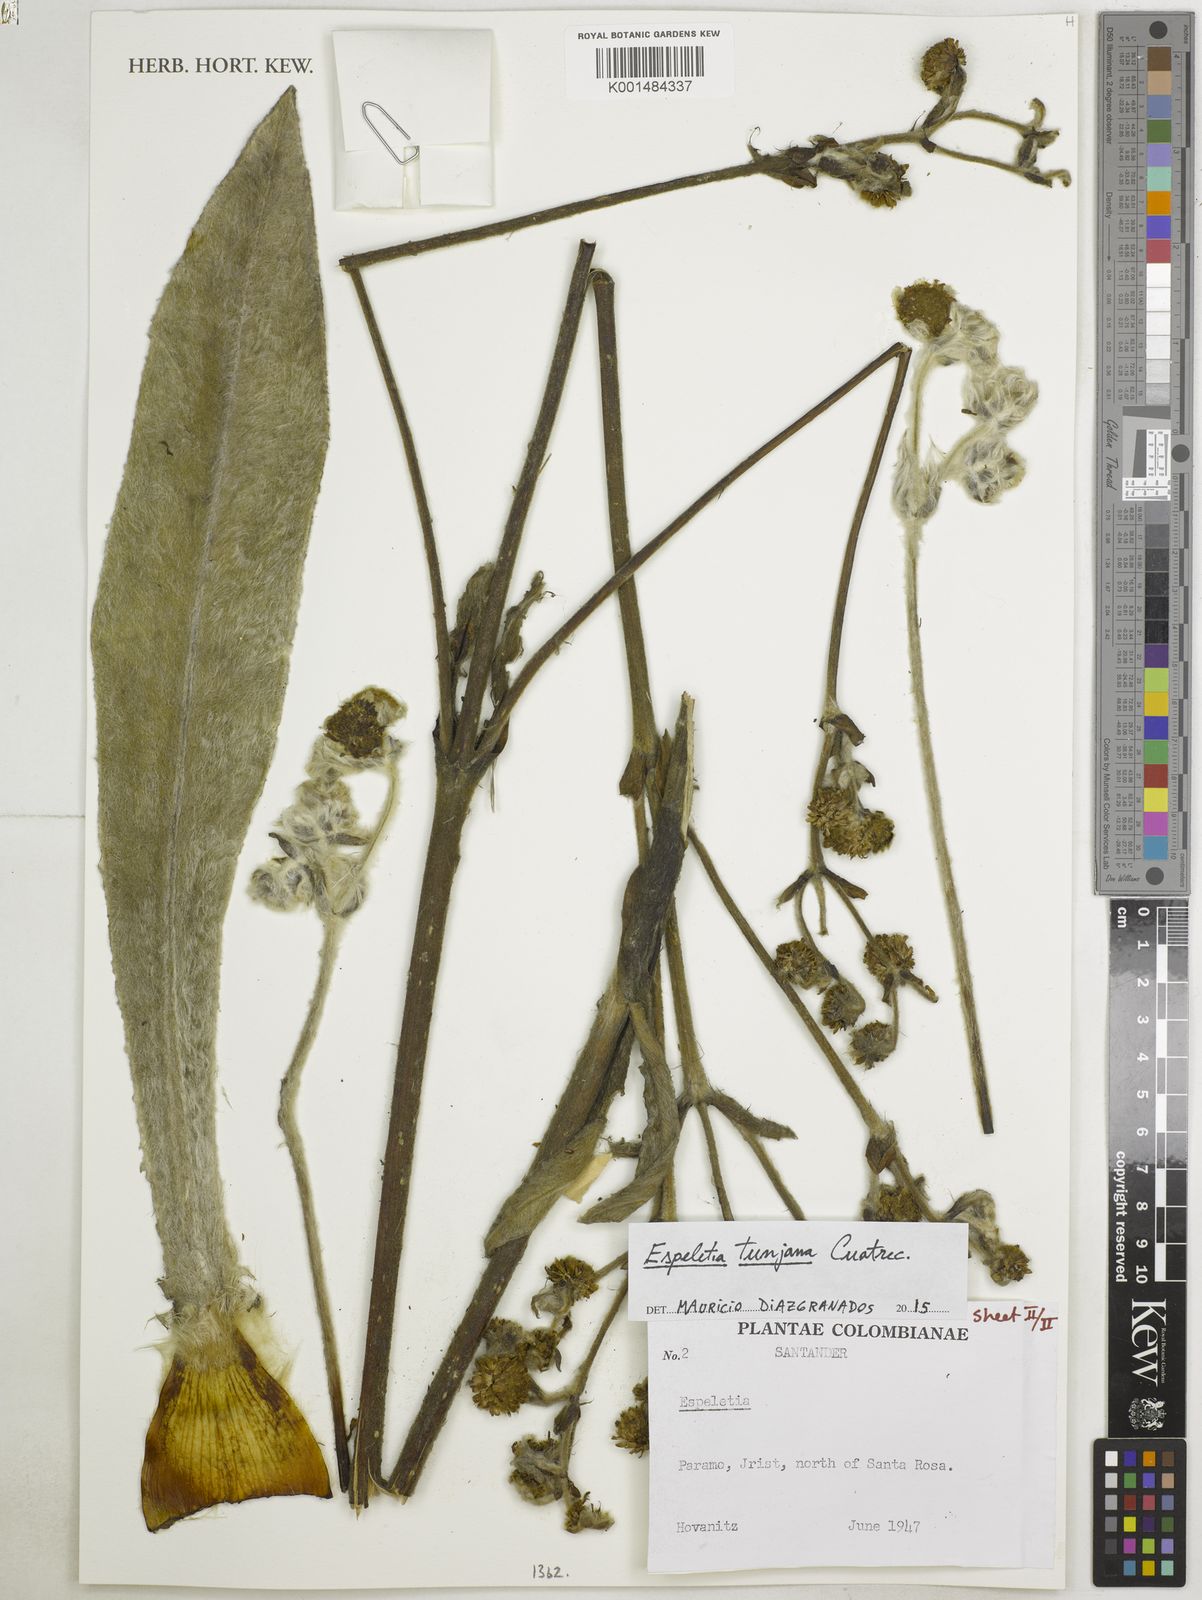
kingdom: Plantae
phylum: Tracheophyta
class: Magnoliopsida
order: Asterales
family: Asteraceae
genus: Espeletia
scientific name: Espeletia tunjana
